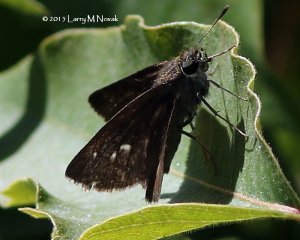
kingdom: Animalia
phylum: Arthropoda
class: Insecta
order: Lepidoptera
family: Hesperiidae
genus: Polites
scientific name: Polites egeremet
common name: Northern Broken-Dash
